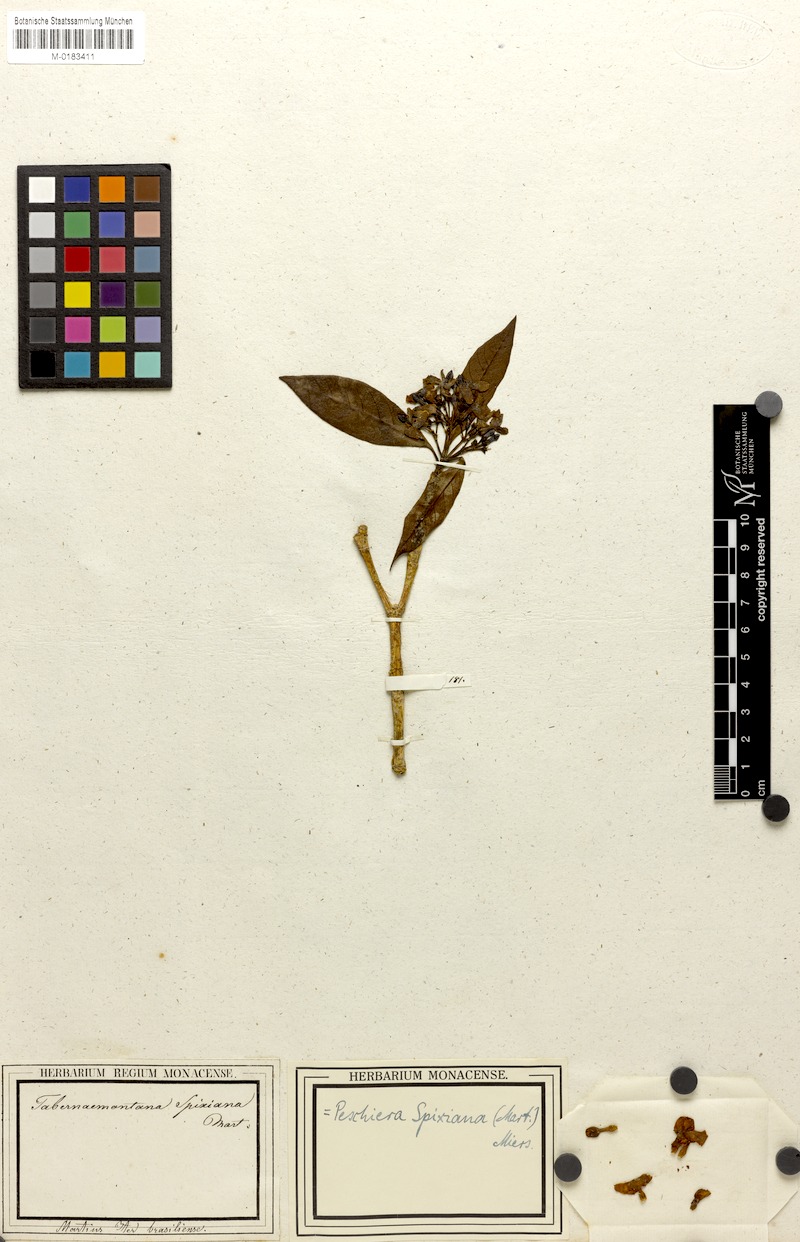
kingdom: Plantae
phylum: Tracheophyta
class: Magnoliopsida
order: Gentianales
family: Apocynaceae
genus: Tabernaemontana
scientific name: Tabernaemontana laeta
